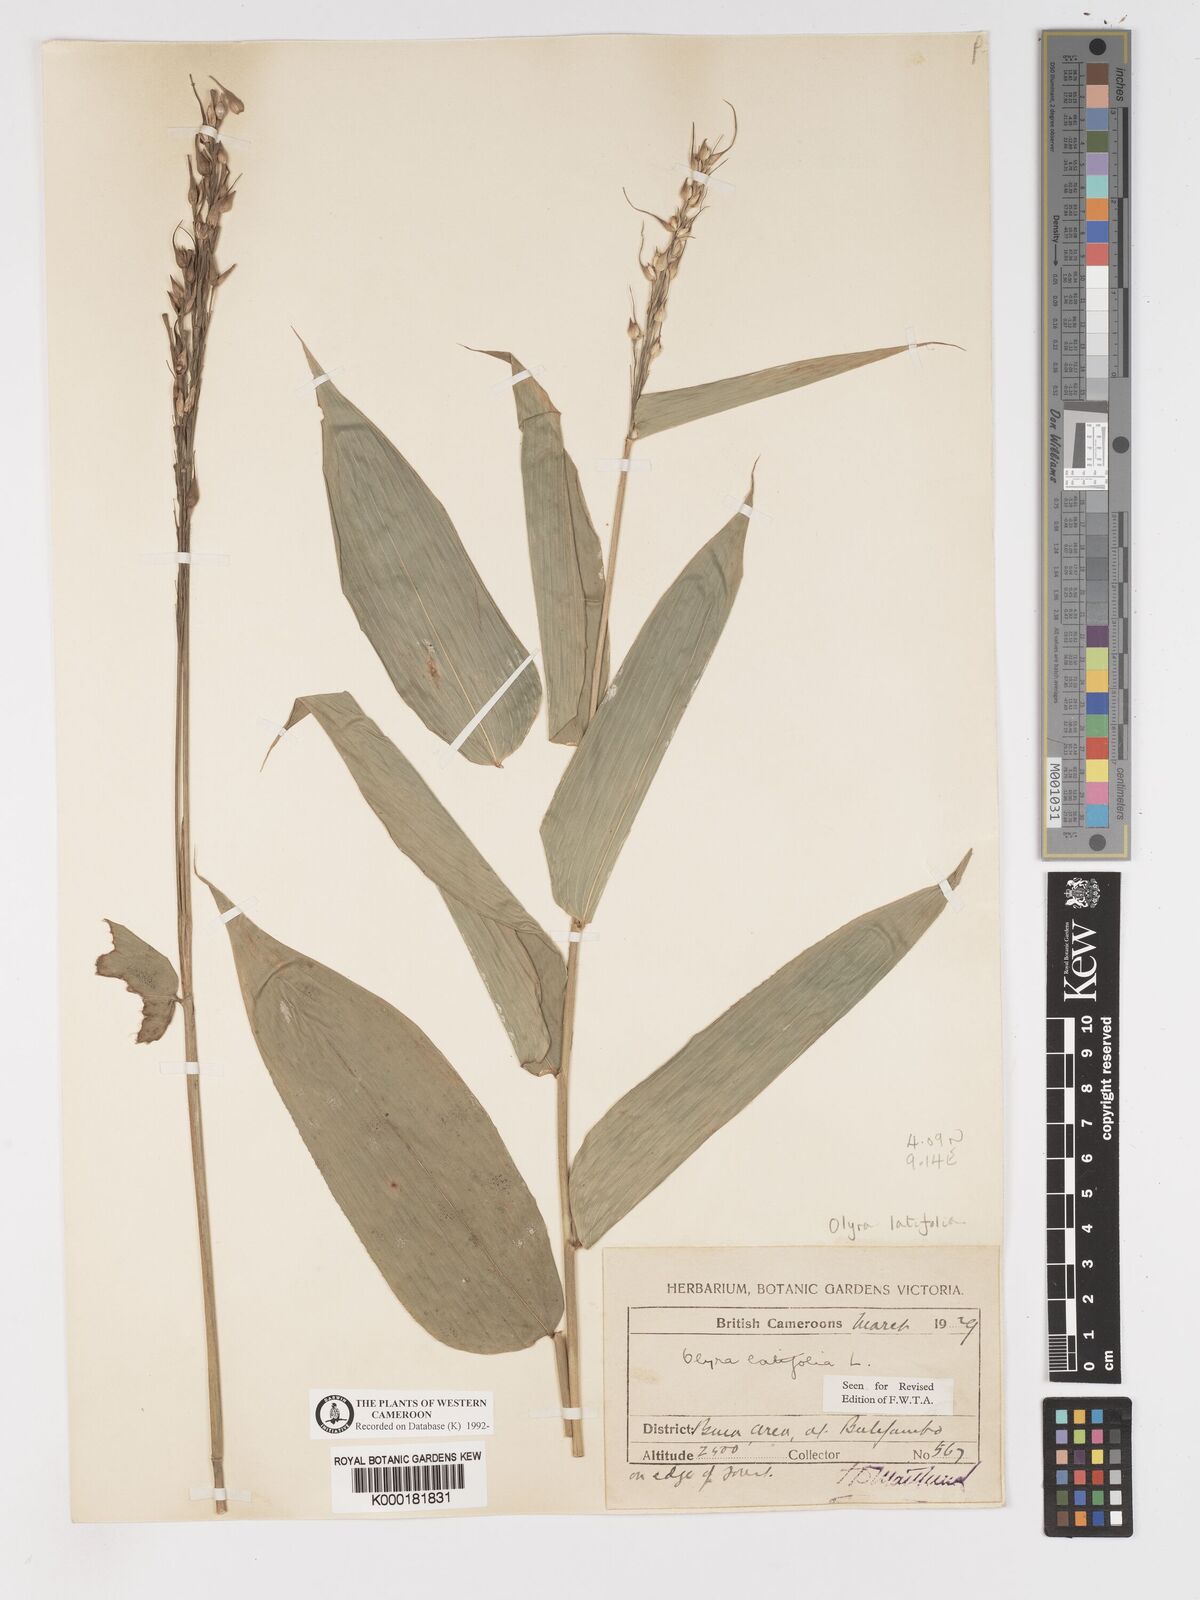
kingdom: Plantae
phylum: Tracheophyta
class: Liliopsida
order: Poales
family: Poaceae
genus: Olyra
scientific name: Olyra latifolia
